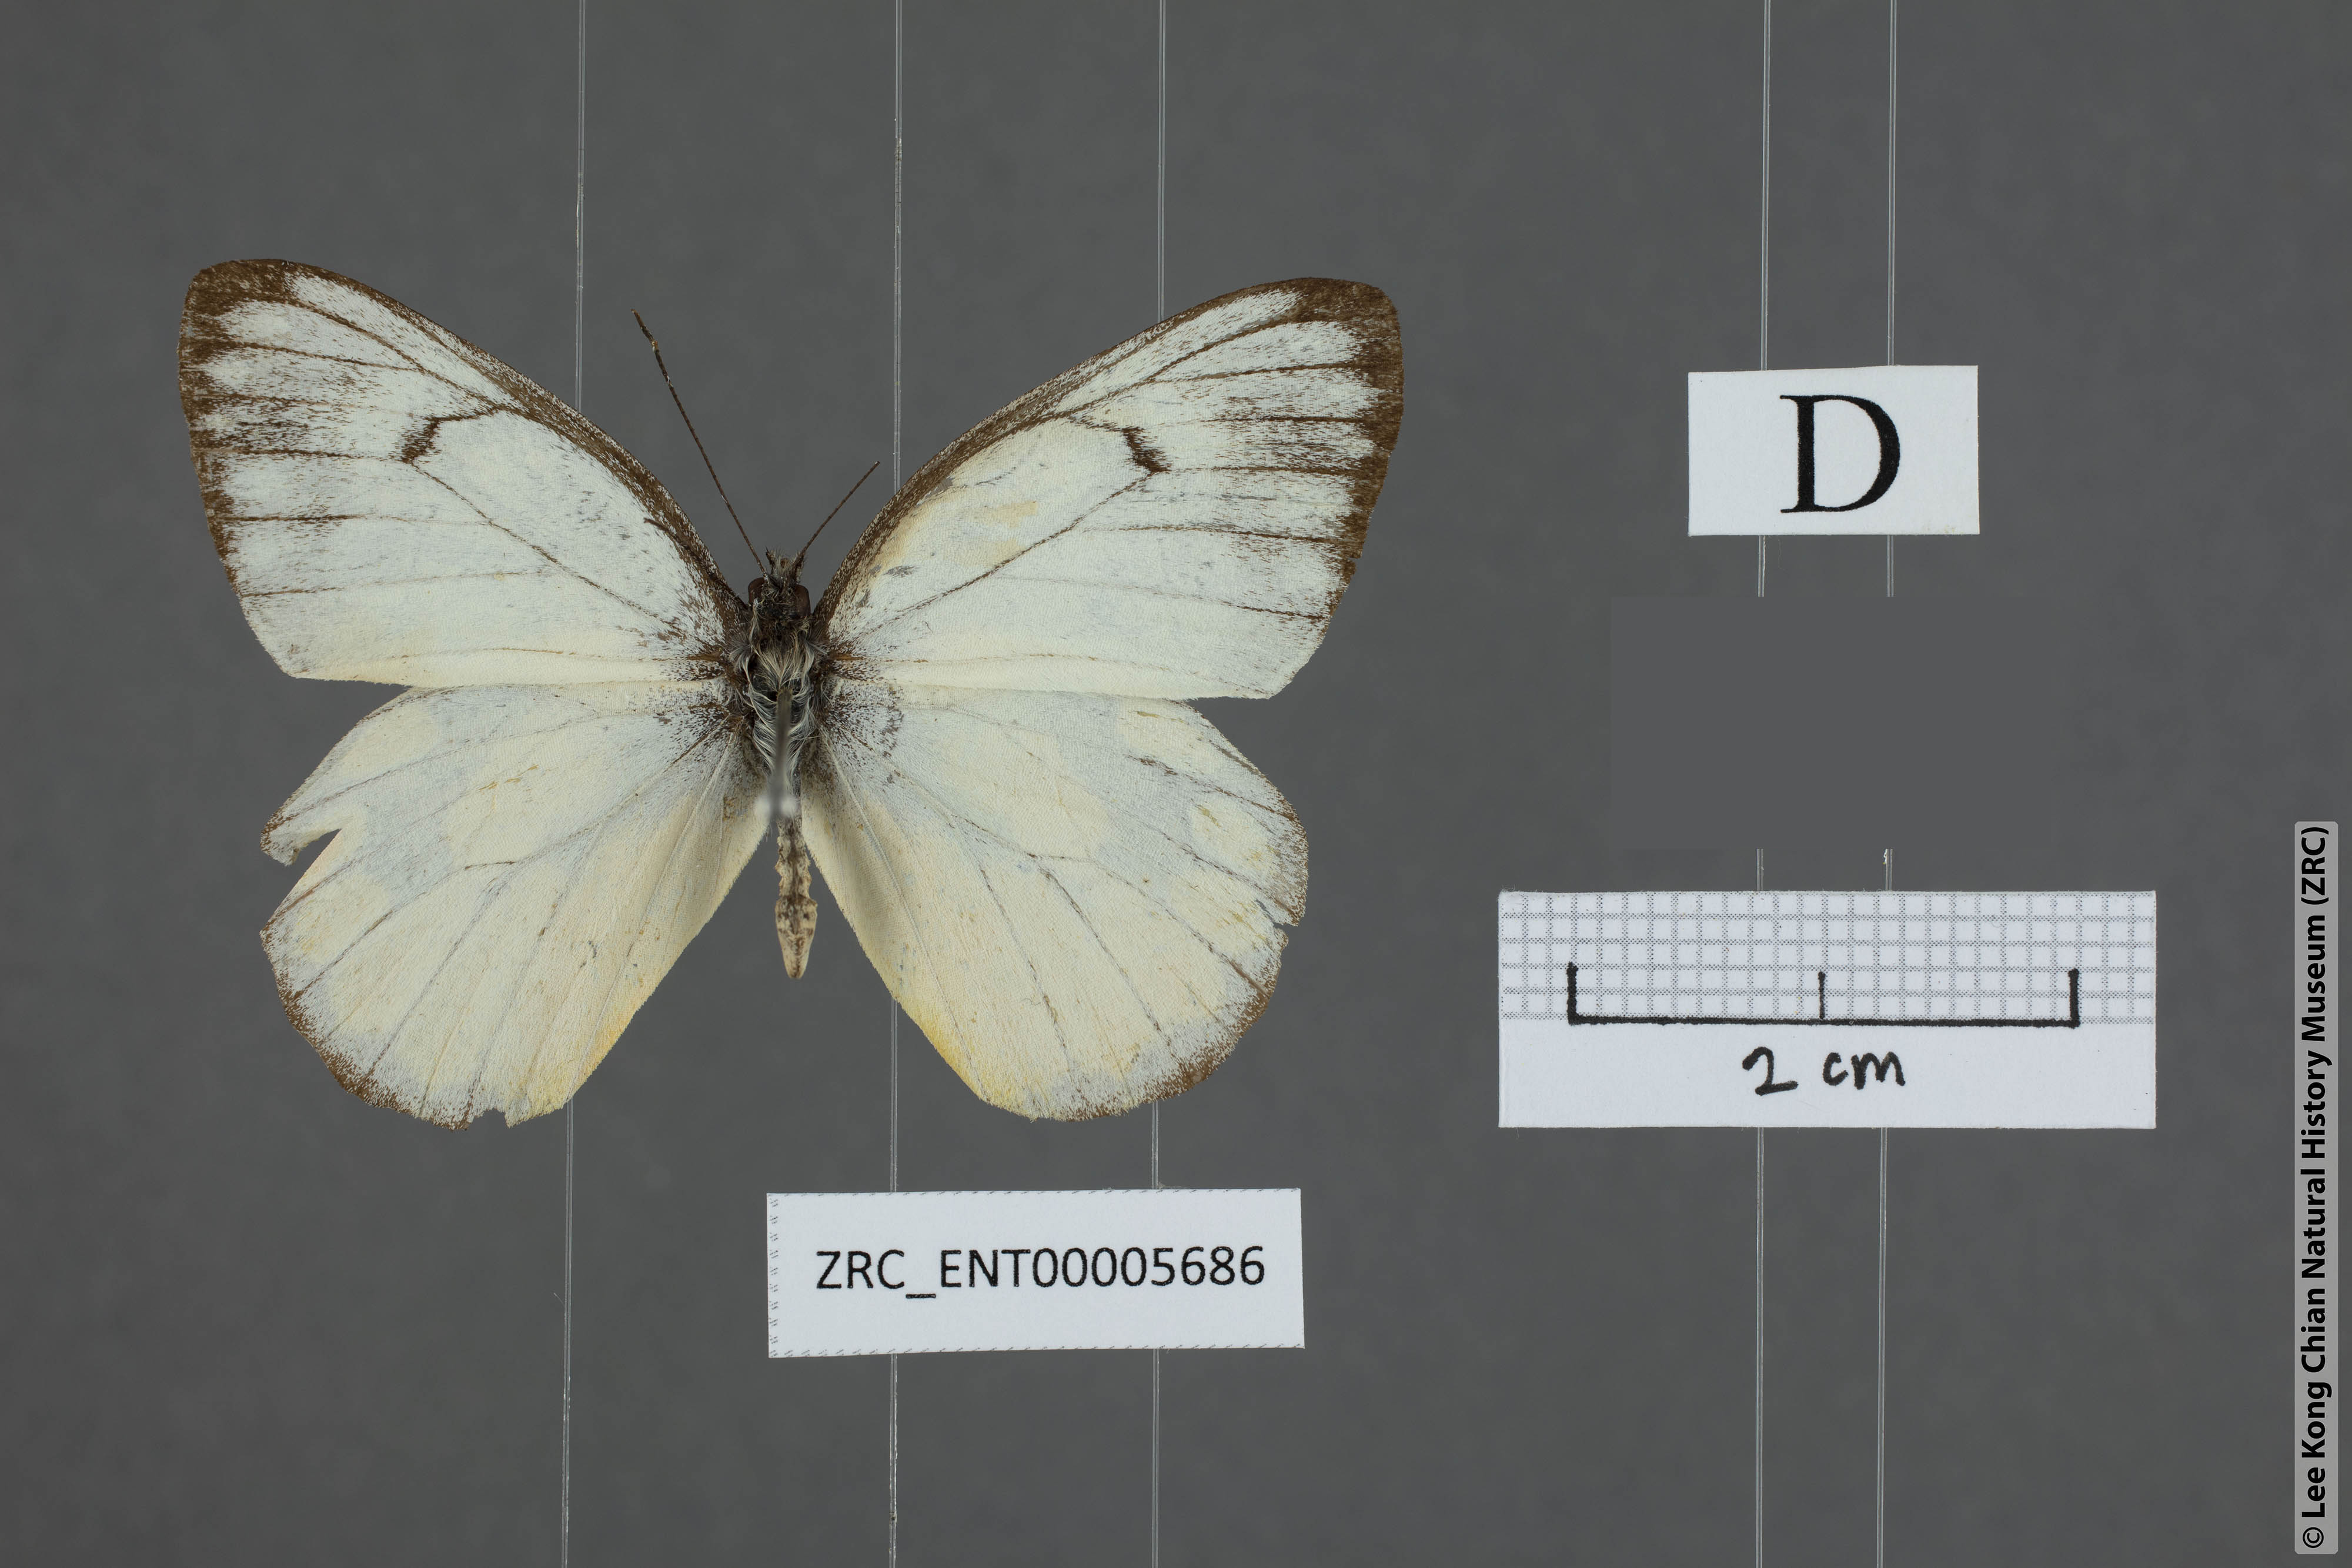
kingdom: Animalia
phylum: Arthropoda
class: Insecta
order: Lepidoptera
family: Pieridae
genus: Delias
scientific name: Delias georgina
